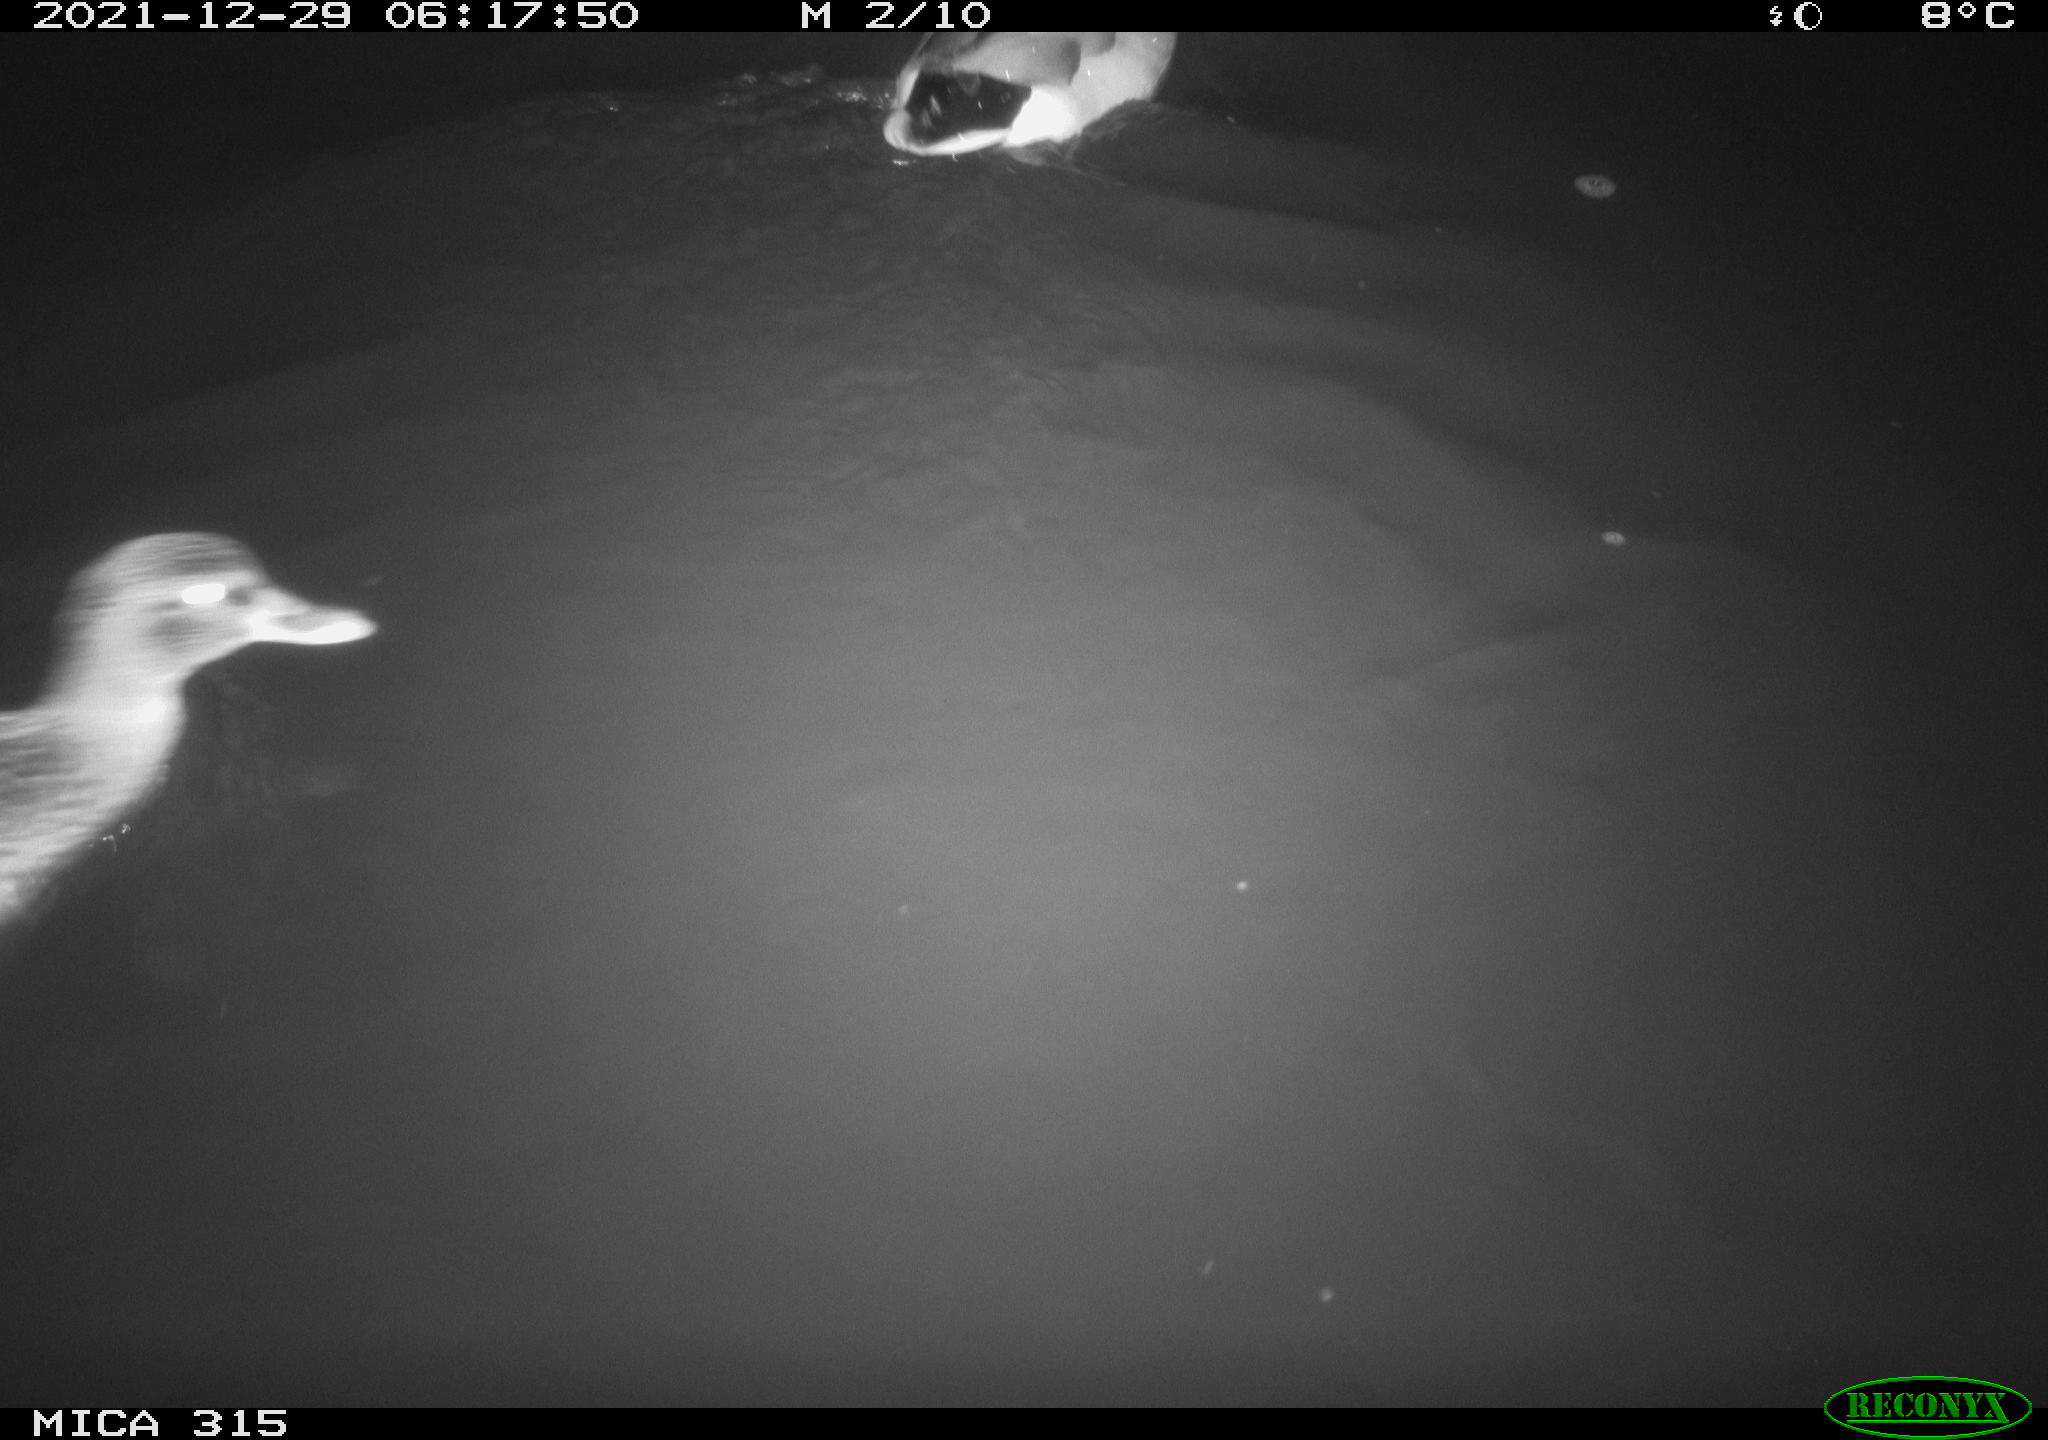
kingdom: Animalia
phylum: Chordata
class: Aves
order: Anseriformes
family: Anatidae
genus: Anas
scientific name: Anas
